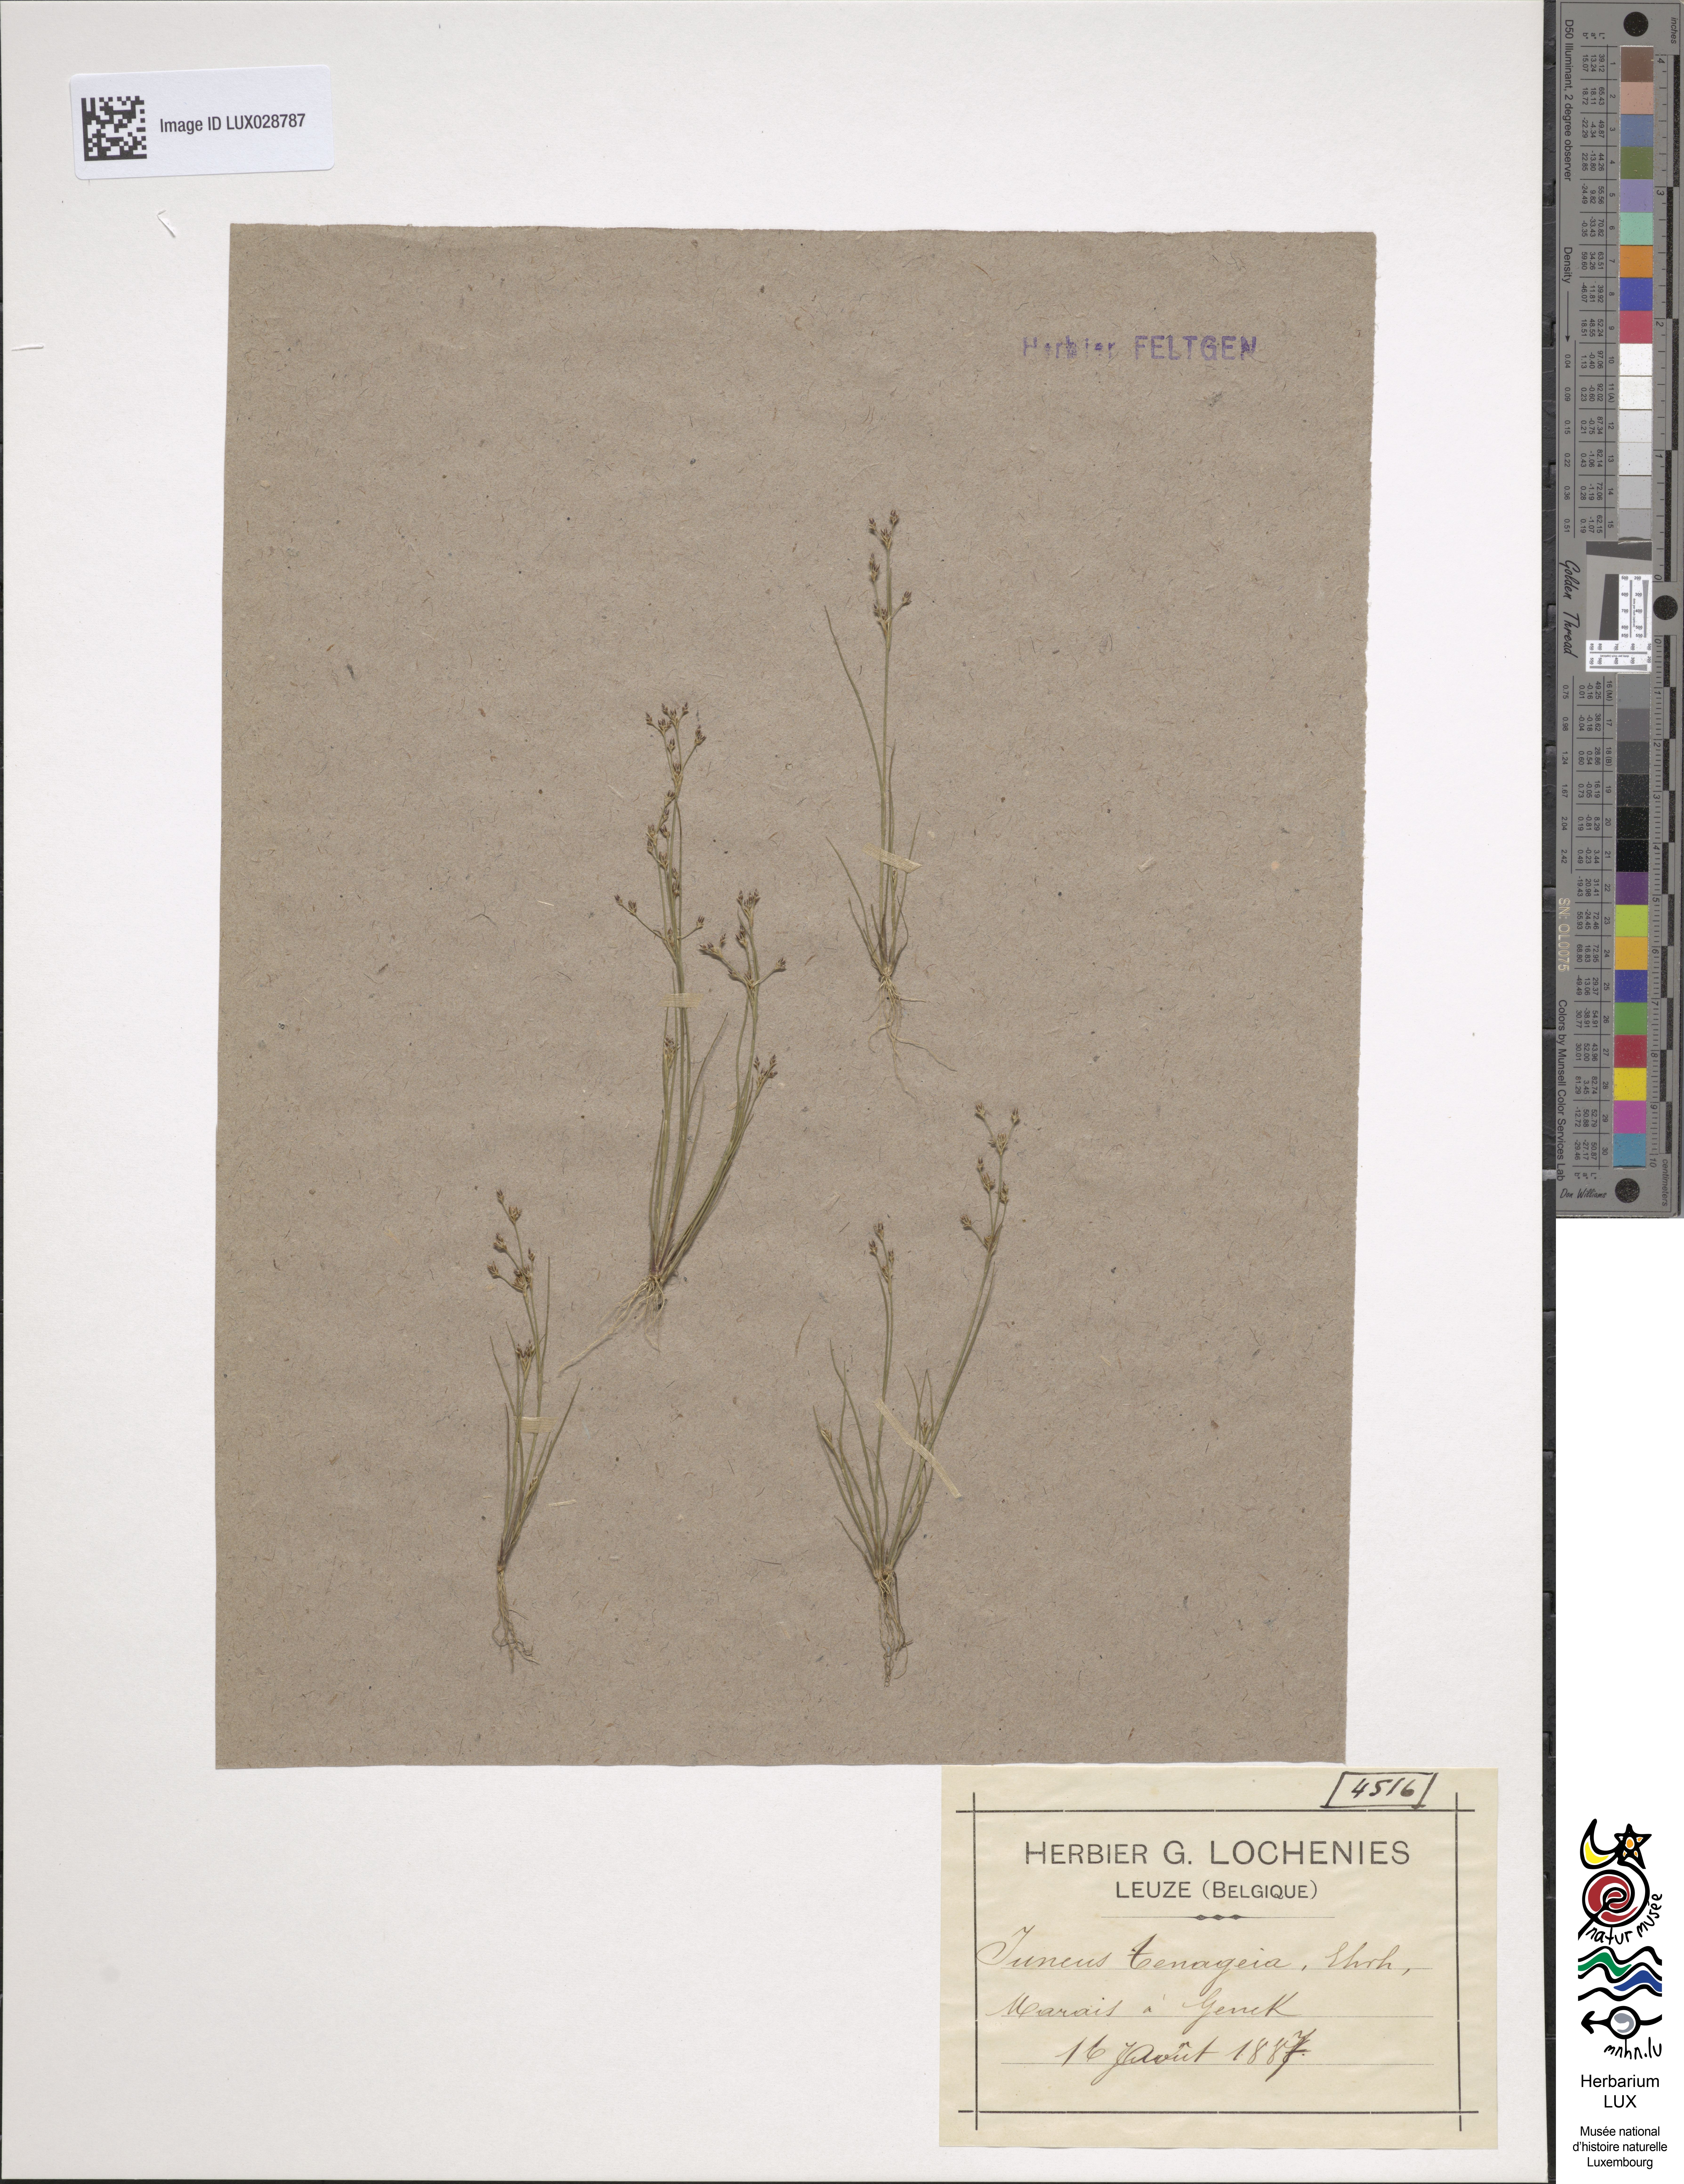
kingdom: Plantae
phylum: Tracheophyta
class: Liliopsida
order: Poales
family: Juncaceae
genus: Juncus
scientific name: Juncus tenageia
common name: Sand rush
